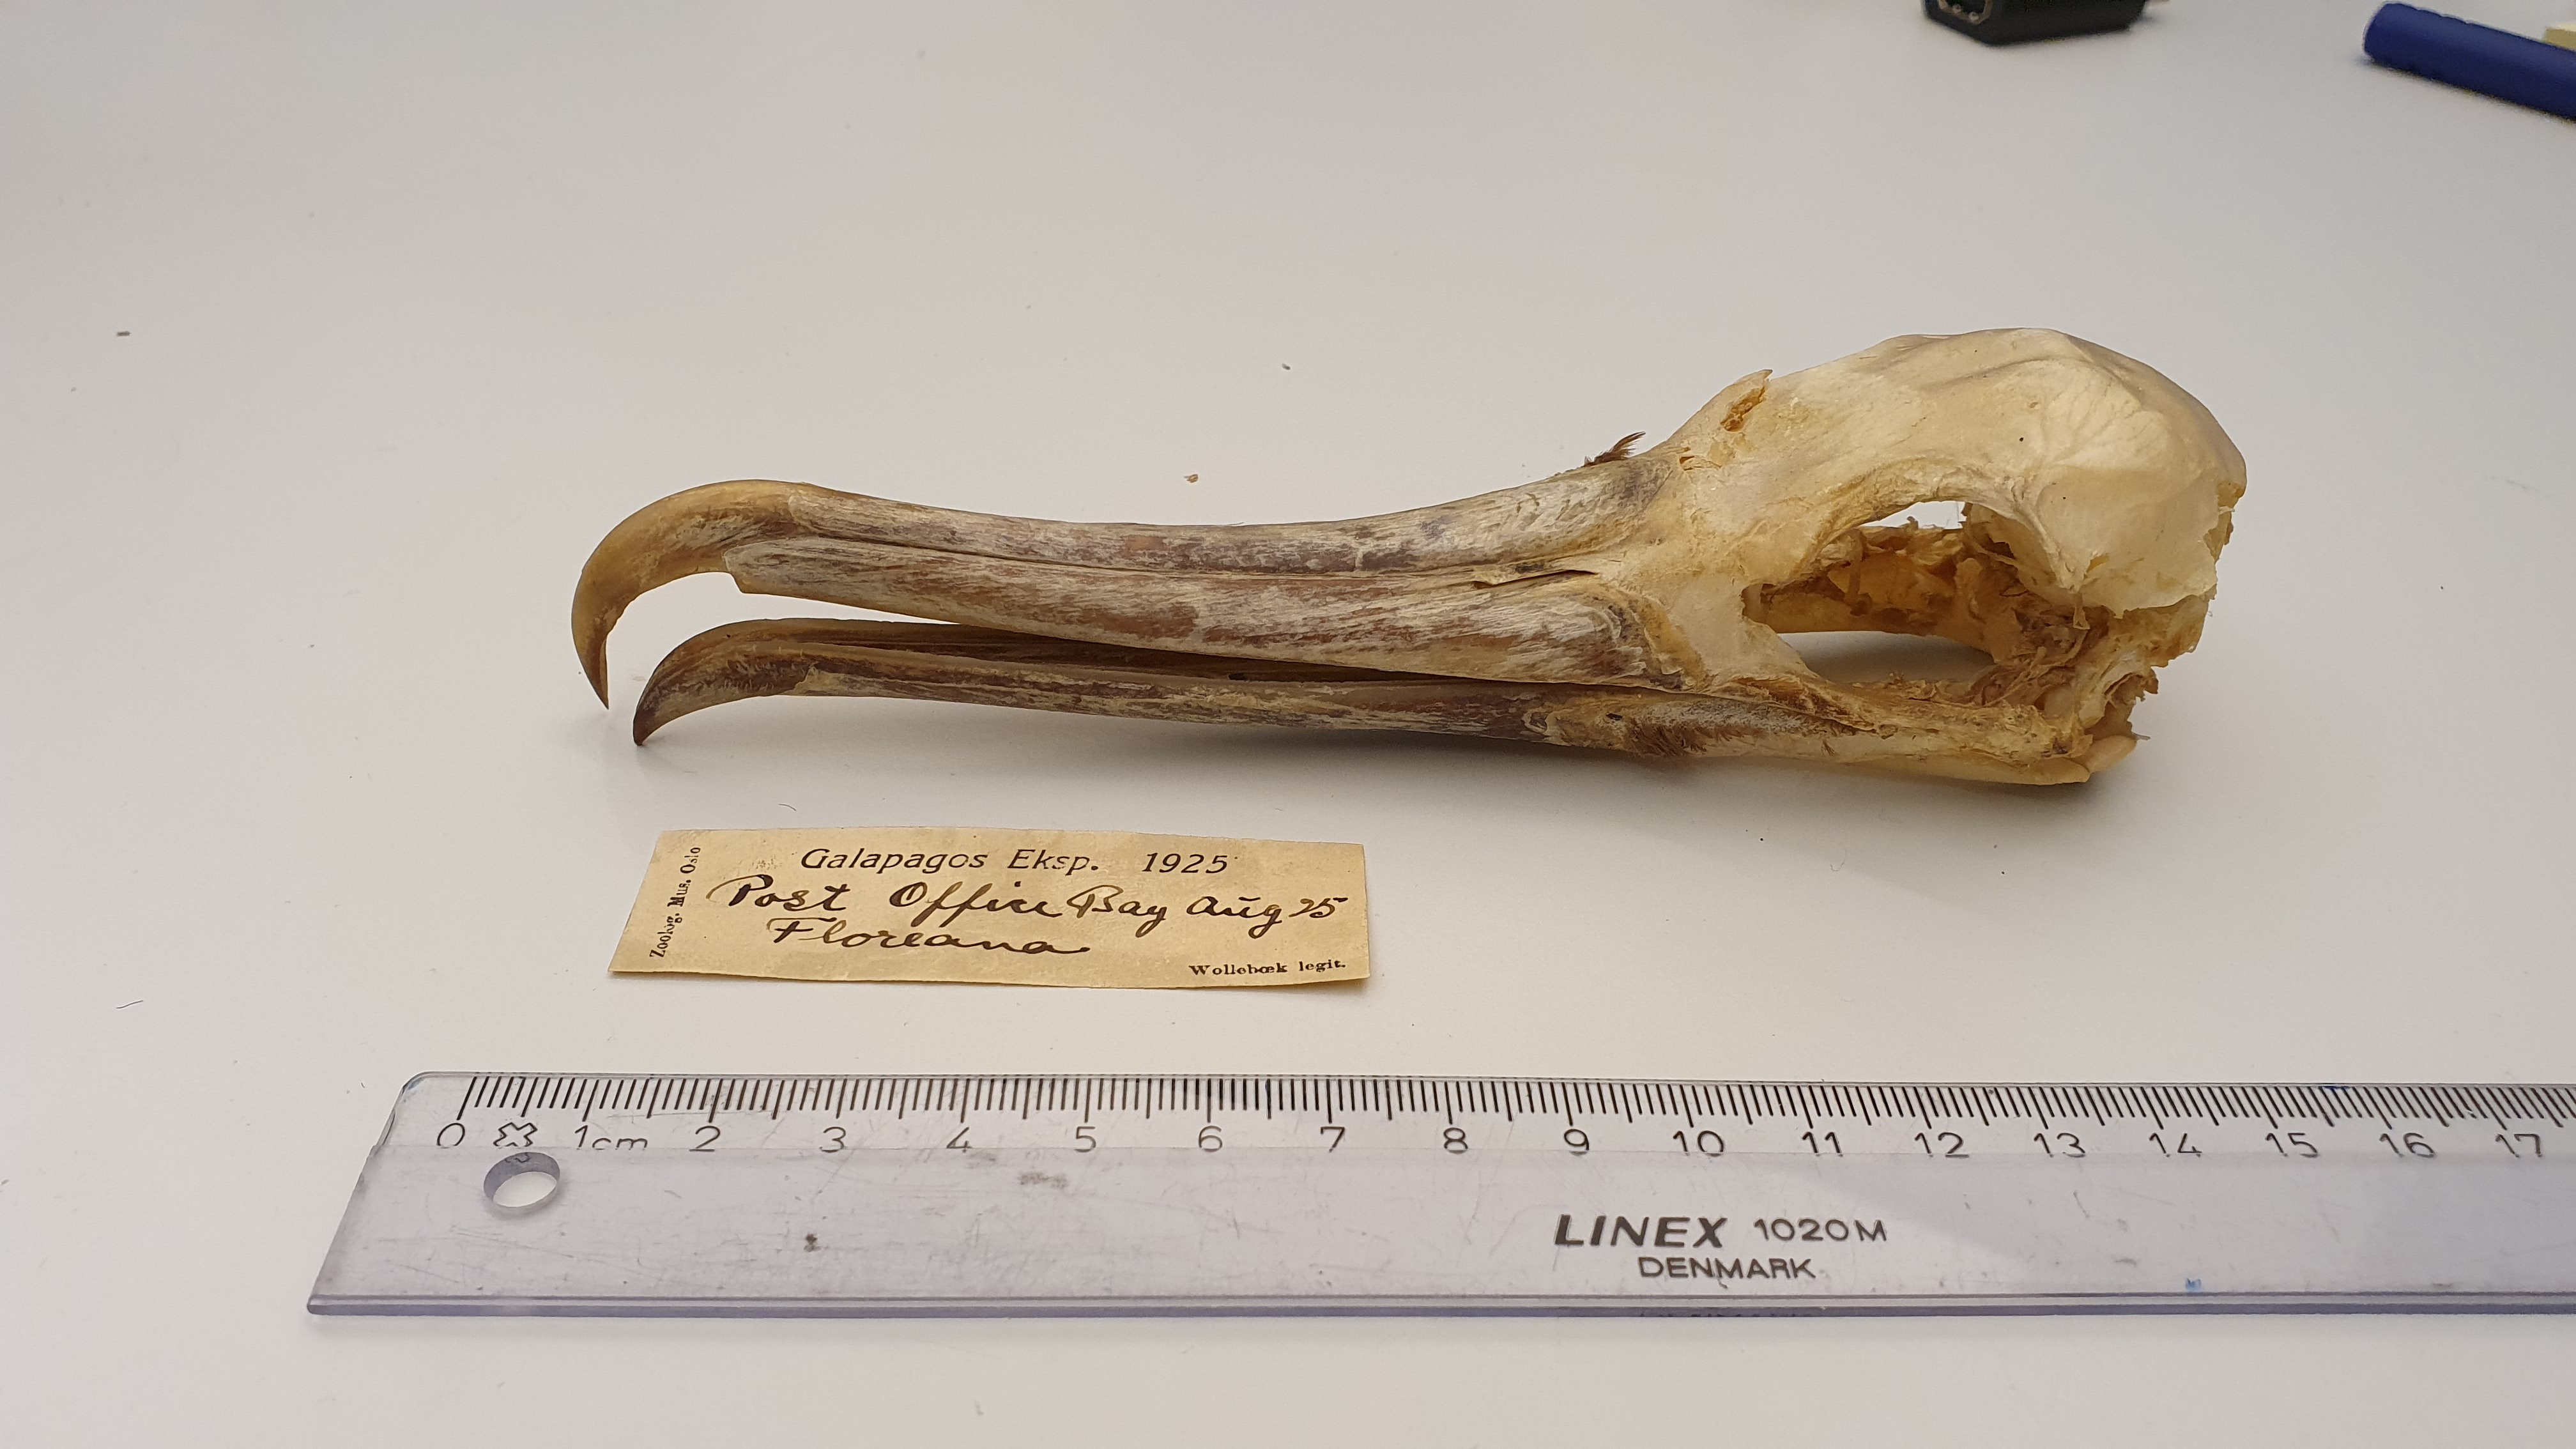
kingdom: Animalia
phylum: Chordata
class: Aves
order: Suliformes
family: Fregatidae
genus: Fregata
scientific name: Fregata
